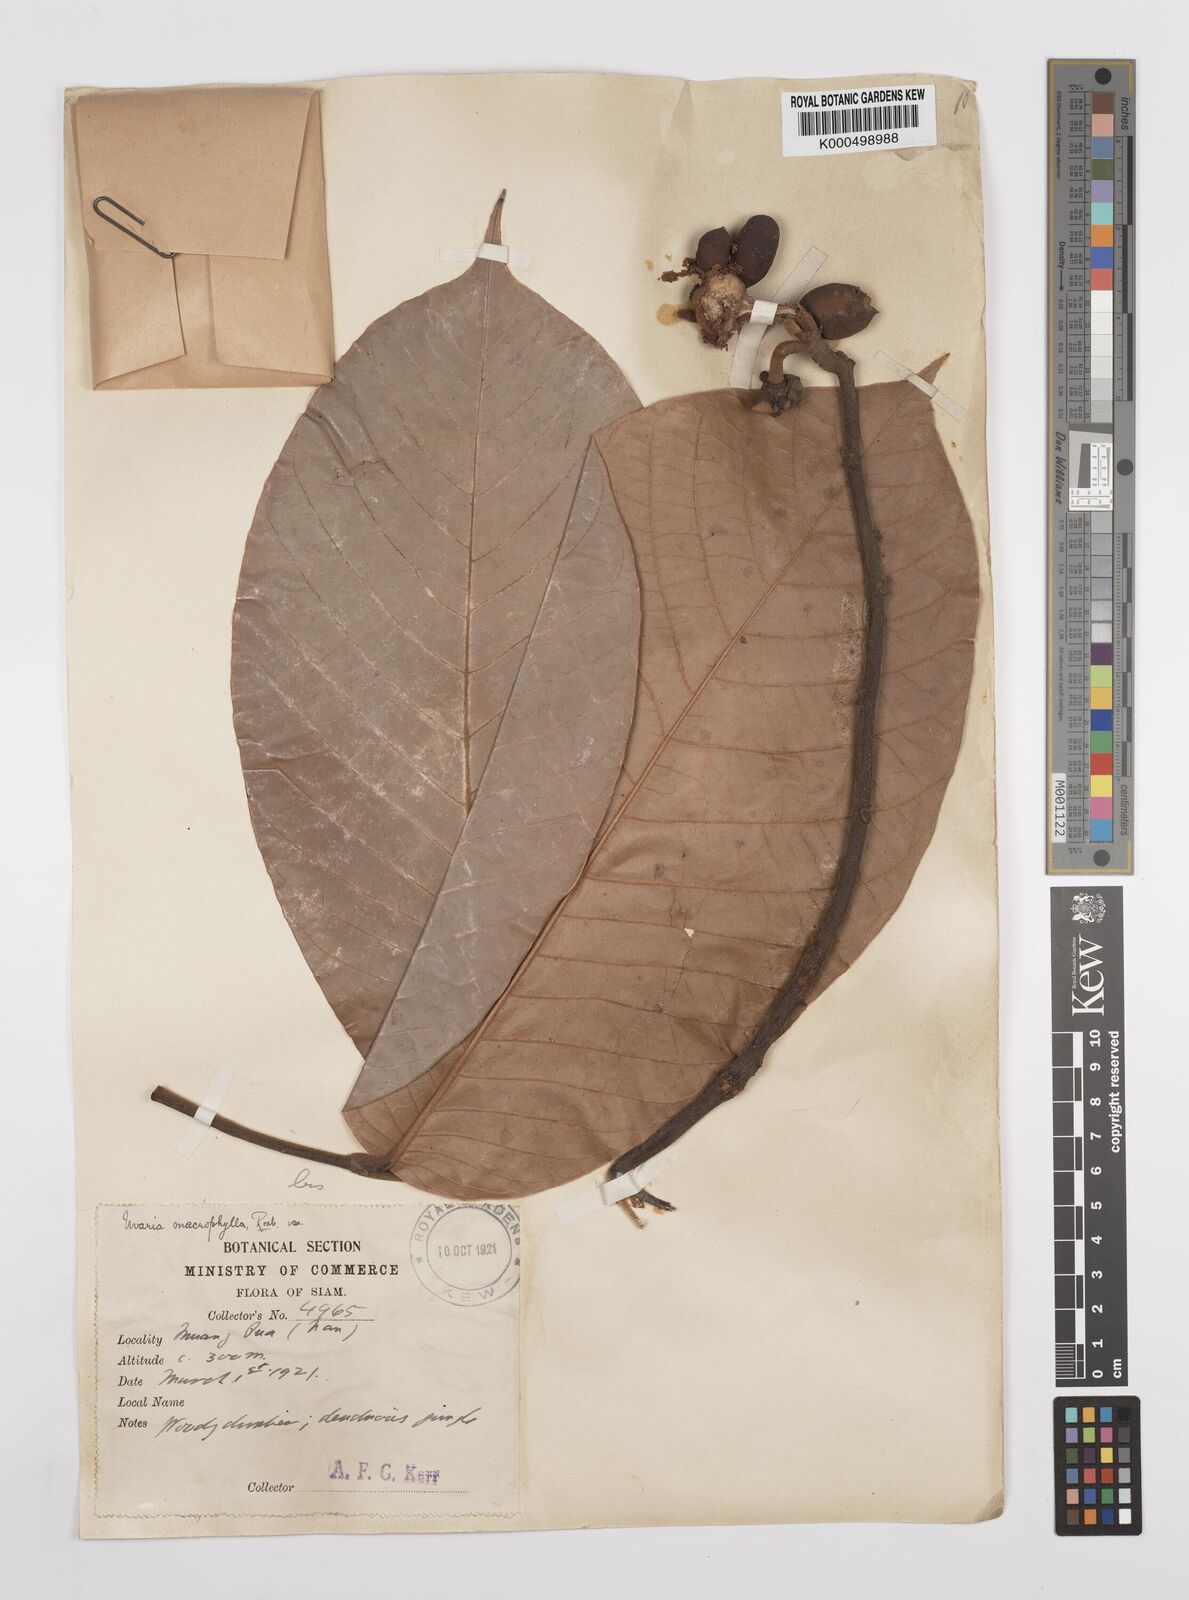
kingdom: Plantae
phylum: Tracheophyta
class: Magnoliopsida
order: Magnoliales
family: Annonaceae
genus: Uvaria
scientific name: Uvaria littoralis
